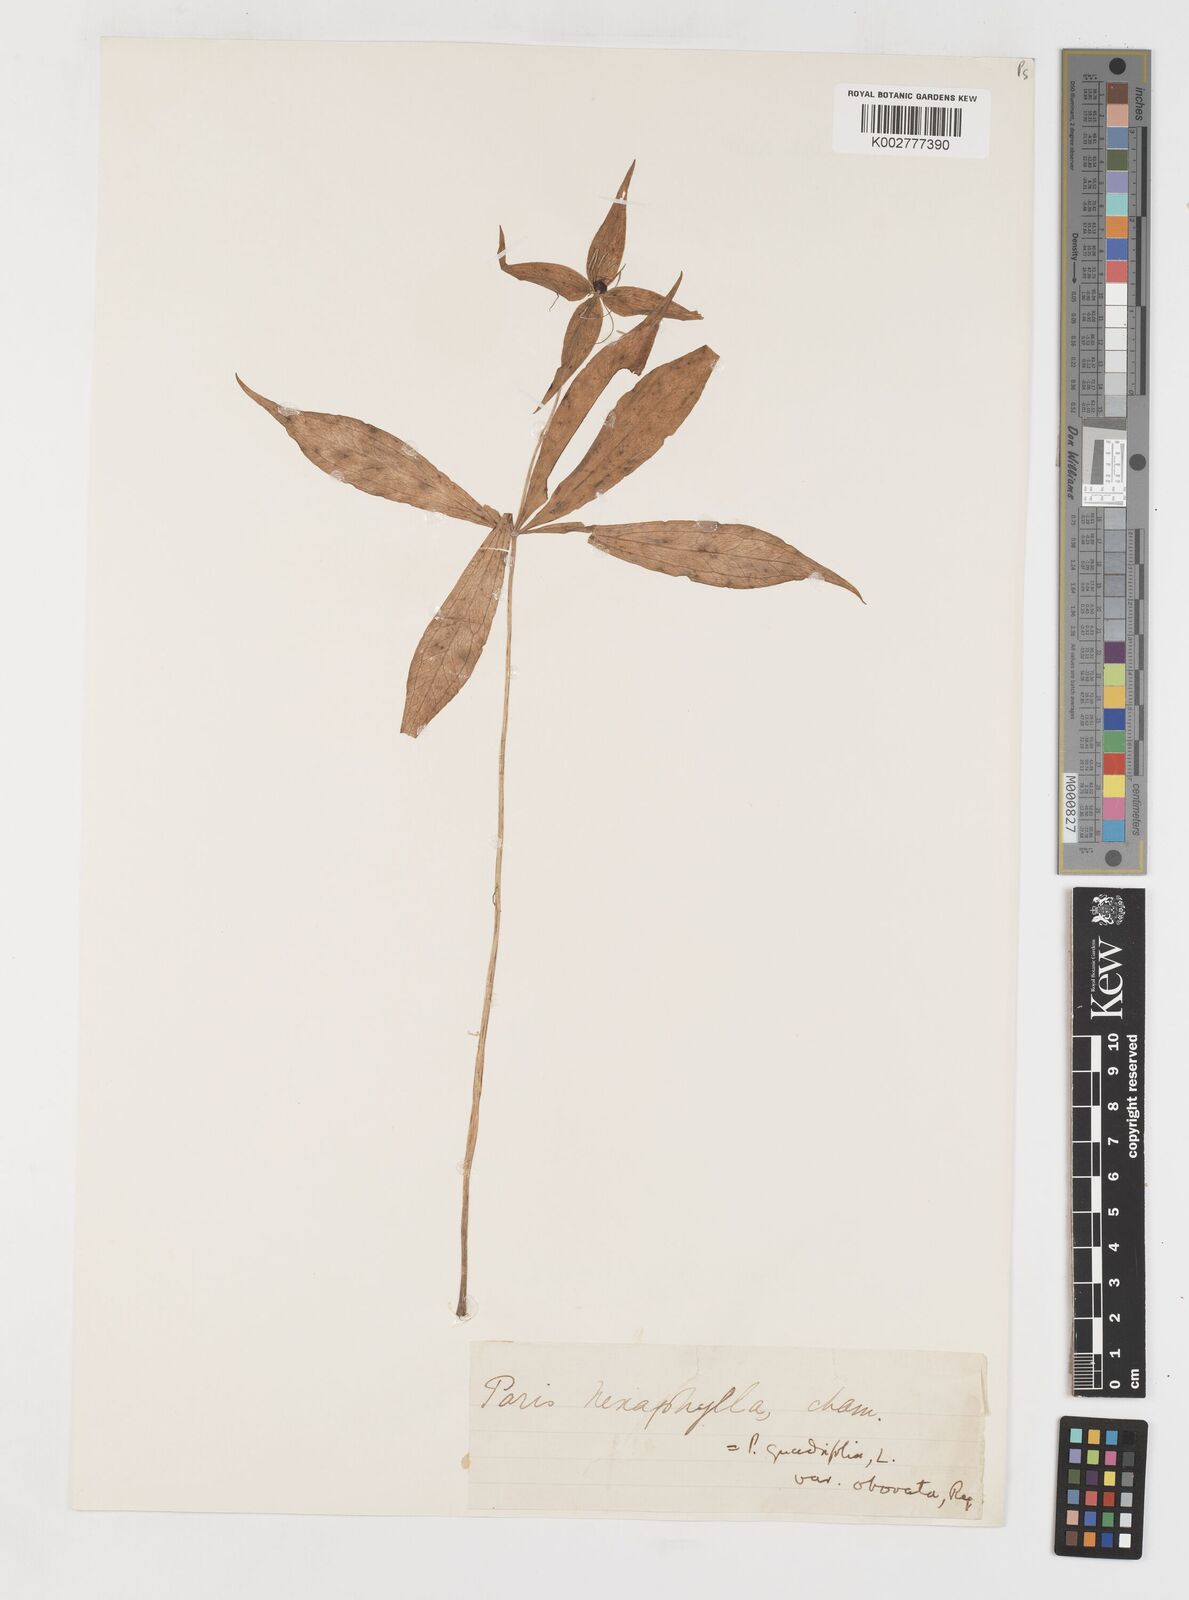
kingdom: Plantae
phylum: Tracheophyta
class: Liliopsida
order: Liliales
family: Melanthiaceae
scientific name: Melanthiaceae
